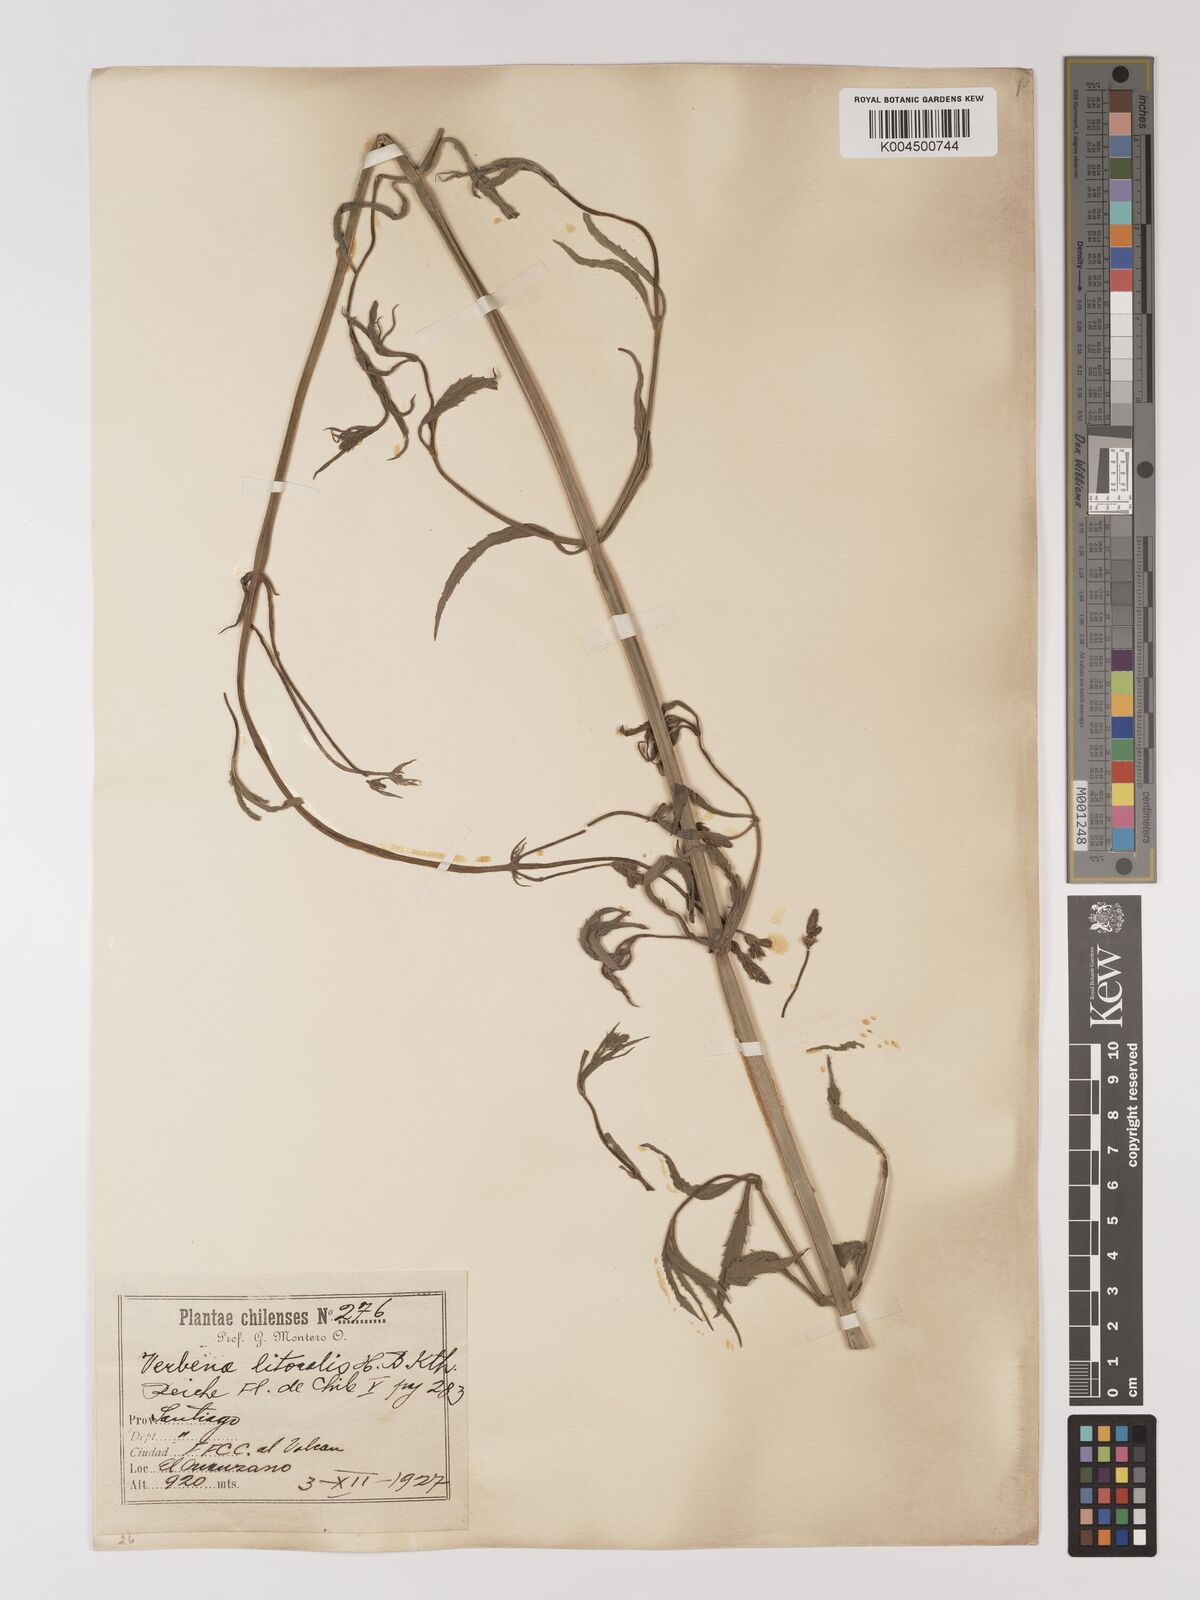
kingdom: Plantae
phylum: Tracheophyta
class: Magnoliopsida
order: Lamiales
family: Verbenaceae
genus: Verbena
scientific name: Verbena litoralis
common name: Seashore vervain
